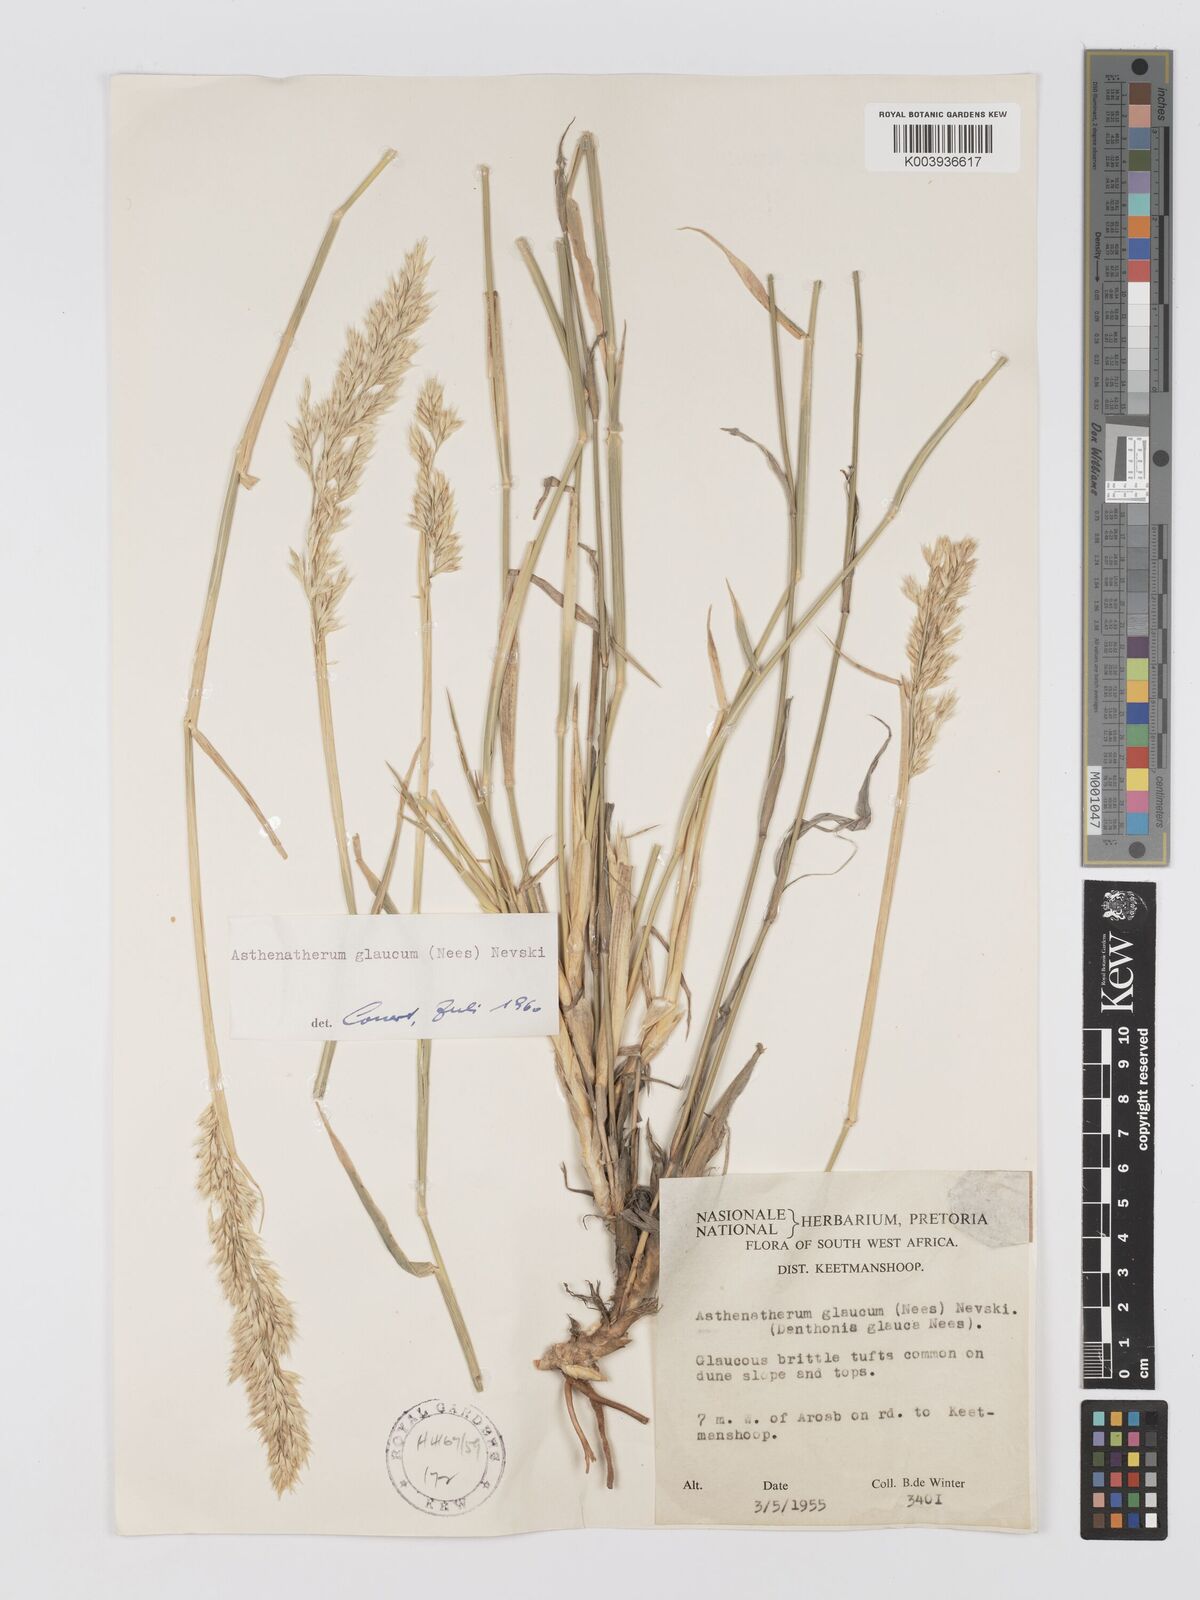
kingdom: Plantae
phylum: Tracheophyta
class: Liliopsida
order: Poales
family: Poaceae
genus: Centropodia
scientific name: Centropodia glauca
